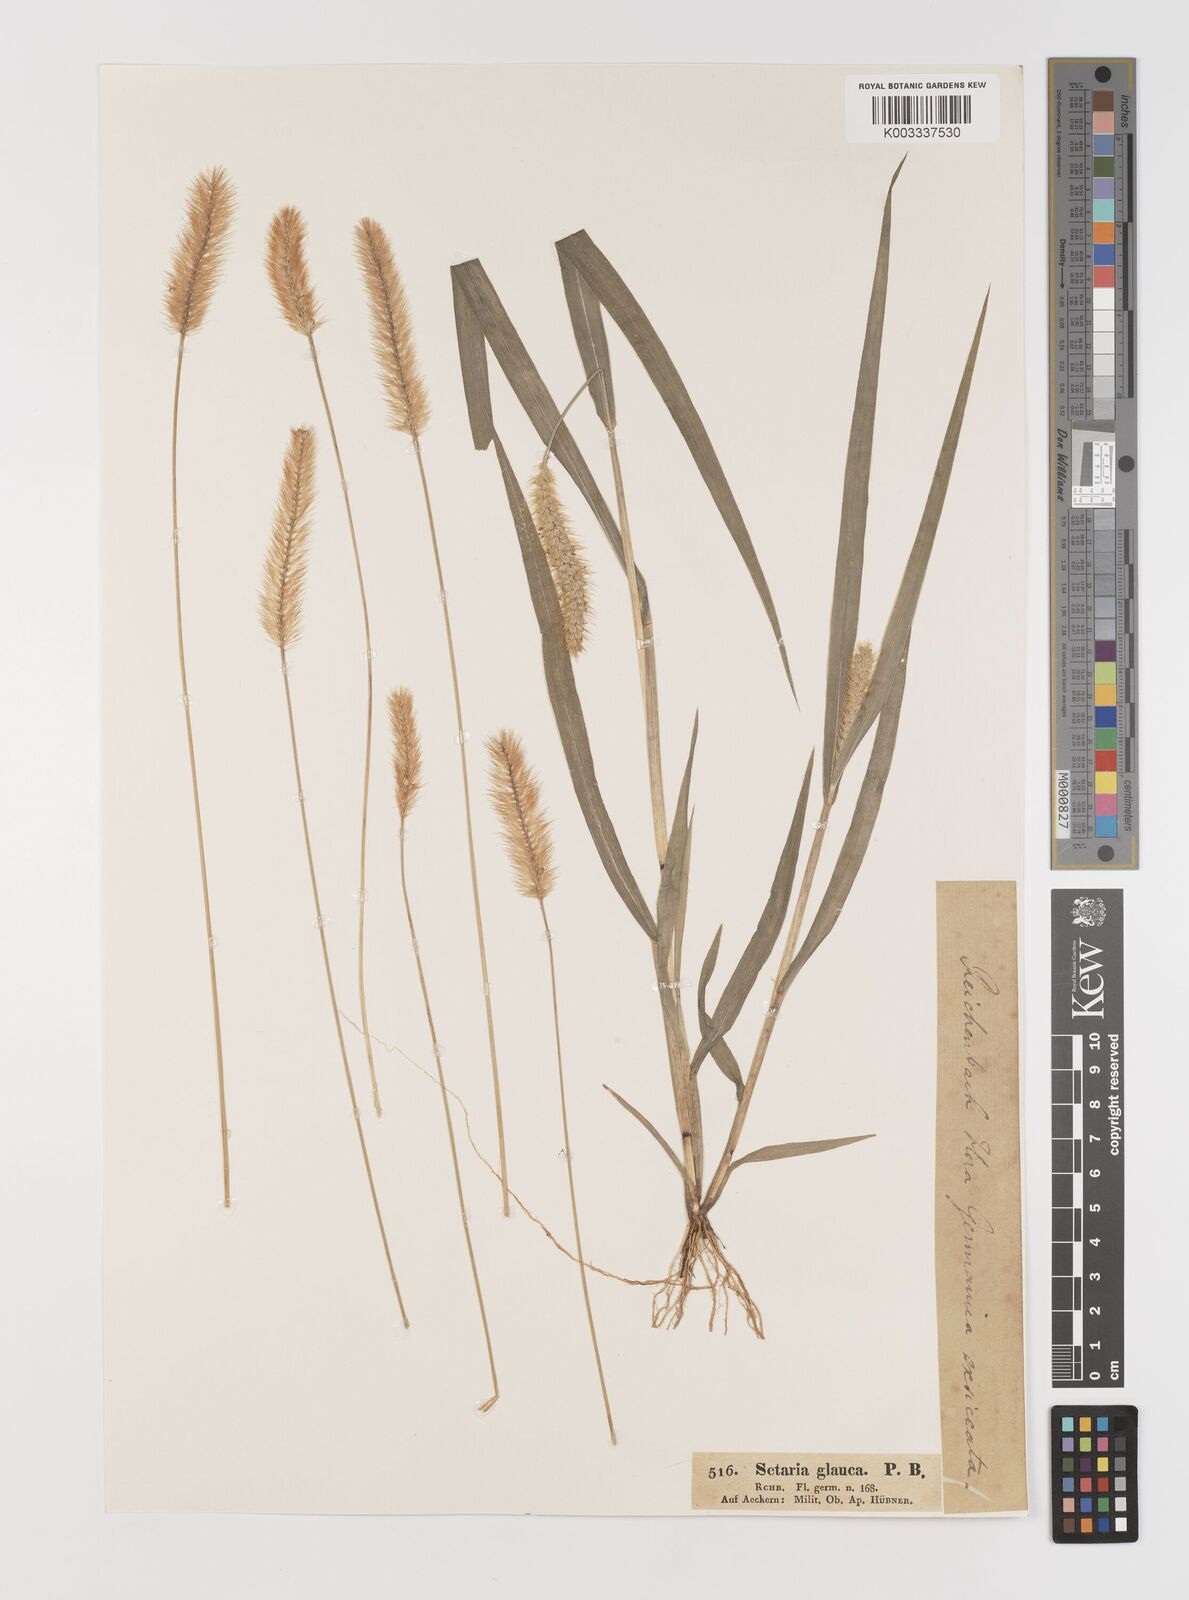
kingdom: Plantae
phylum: Tracheophyta
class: Liliopsida
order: Poales
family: Poaceae
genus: Setaria
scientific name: Setaria pumila
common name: Yellow bristle-grass
